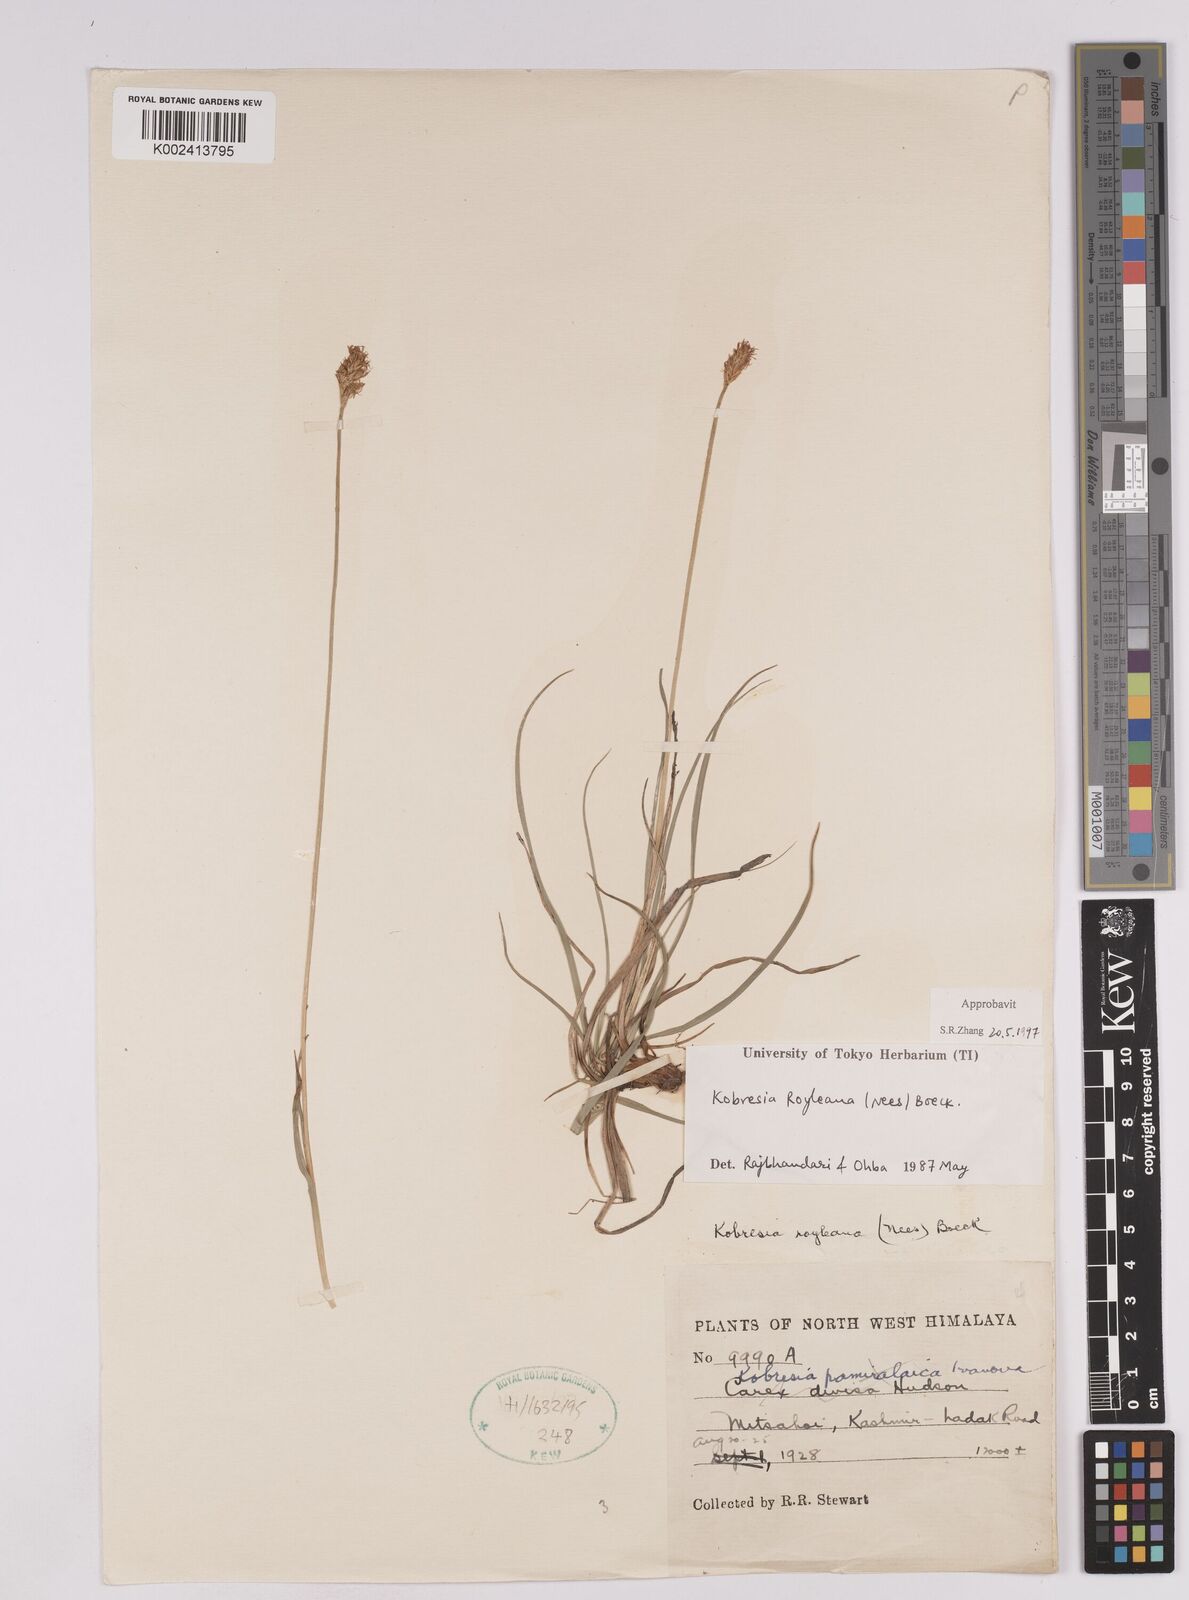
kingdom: Plantae
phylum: Tracheophyta
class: Liliopsida
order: Poales
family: Cyperaceae
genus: Carex
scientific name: Carex kokanica
